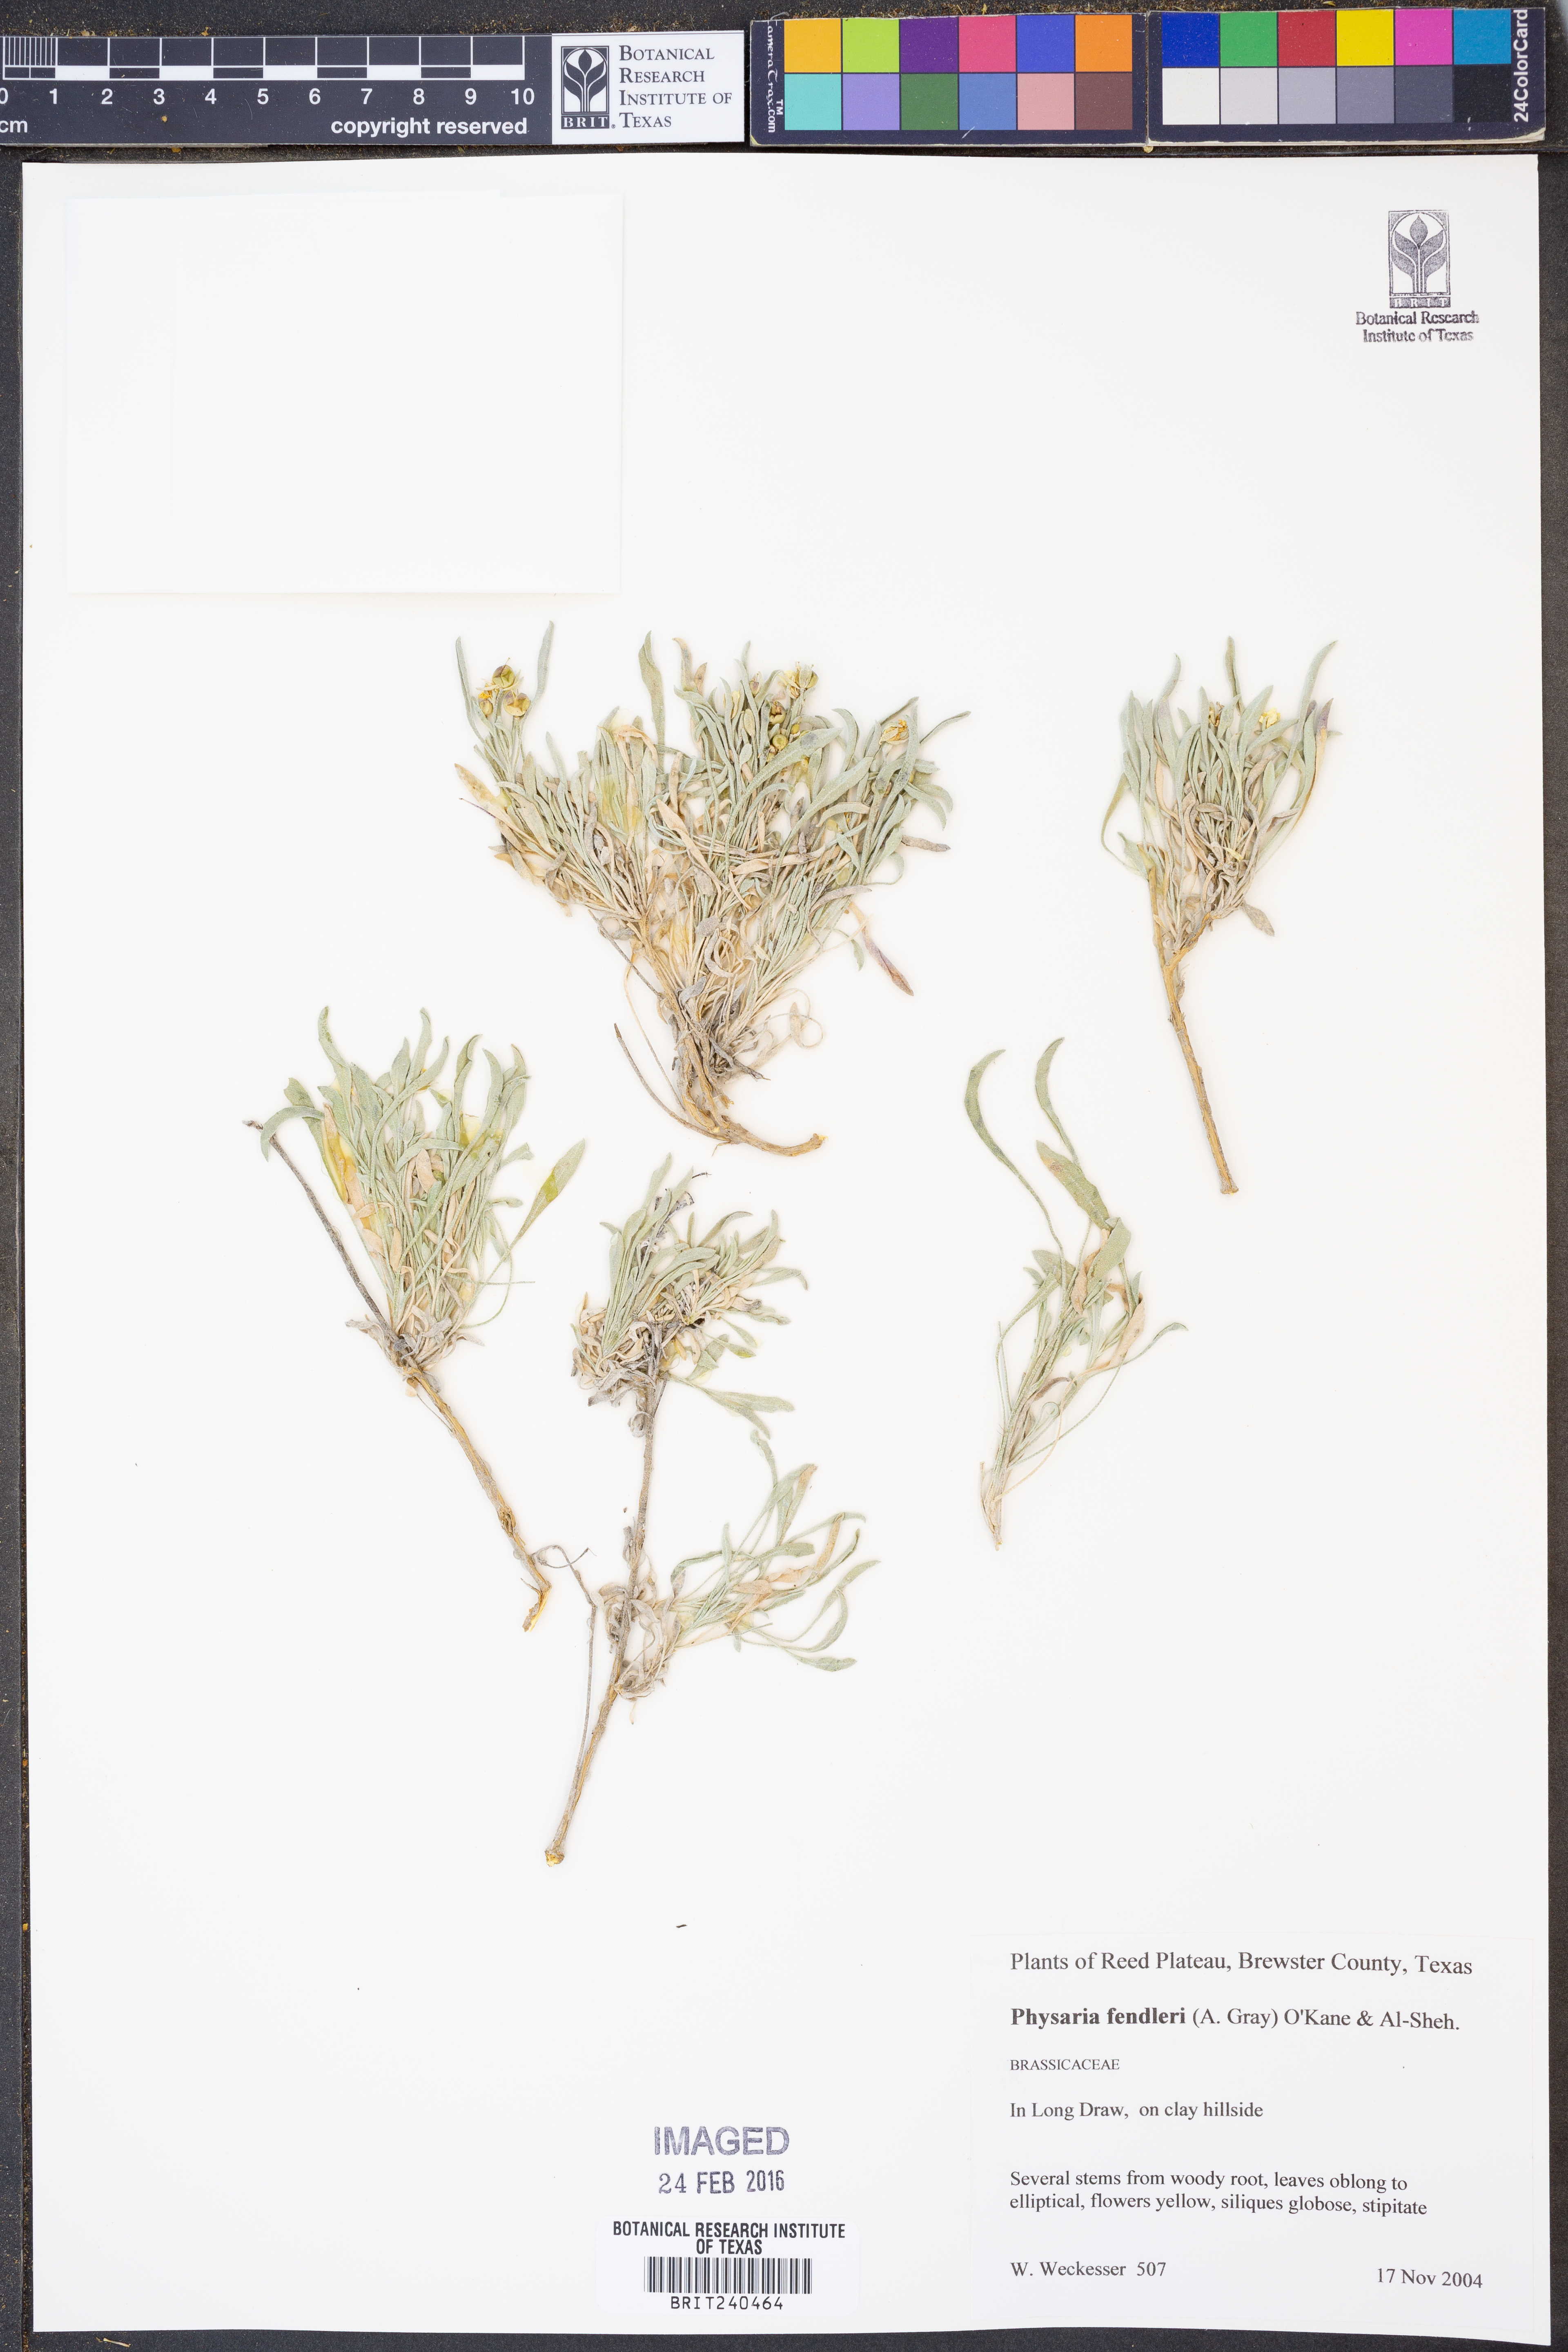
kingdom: Plantae
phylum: Tracheophyta
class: Magnoliopsida
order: Brassicales
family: Brassicaceae
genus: Physaria
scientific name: Physaria fendleri
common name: Fendler's bladderpod
